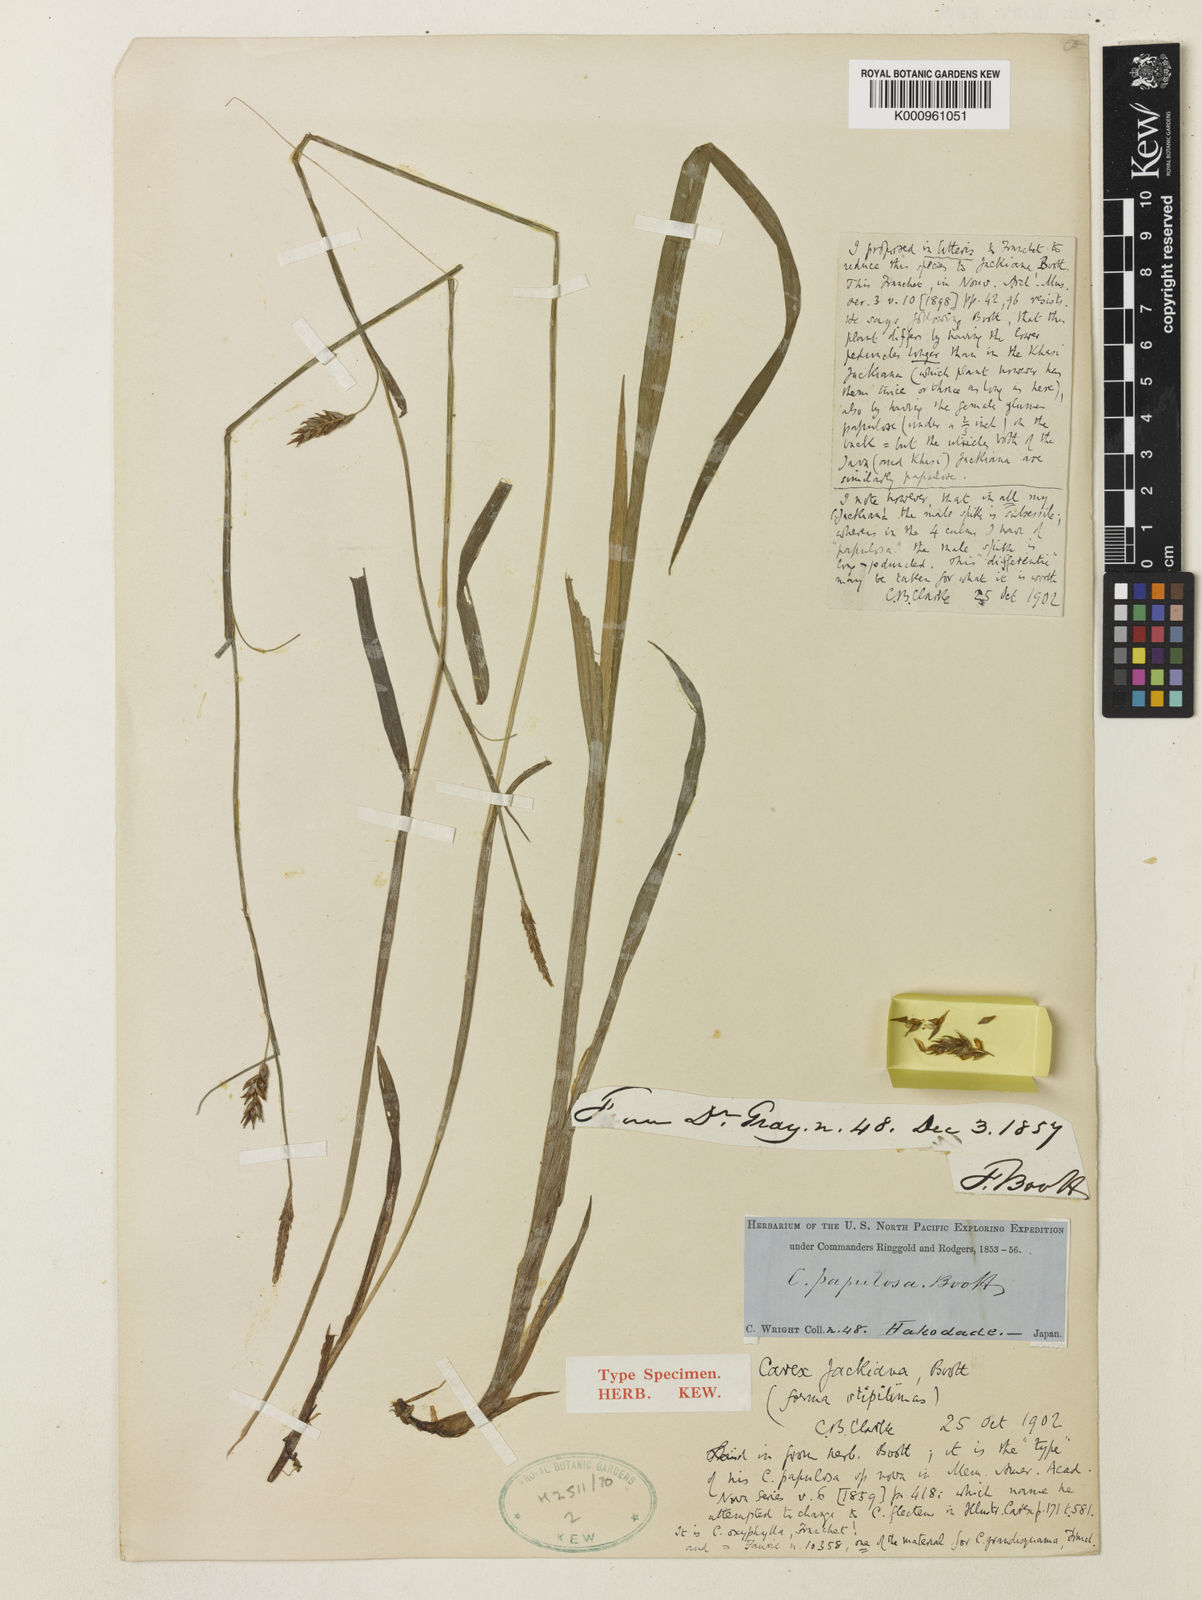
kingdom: Plantae
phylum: Tracheophyta
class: Liliopsida
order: Poales
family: Cyperaceae
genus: Carex
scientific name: Carex papulosa
